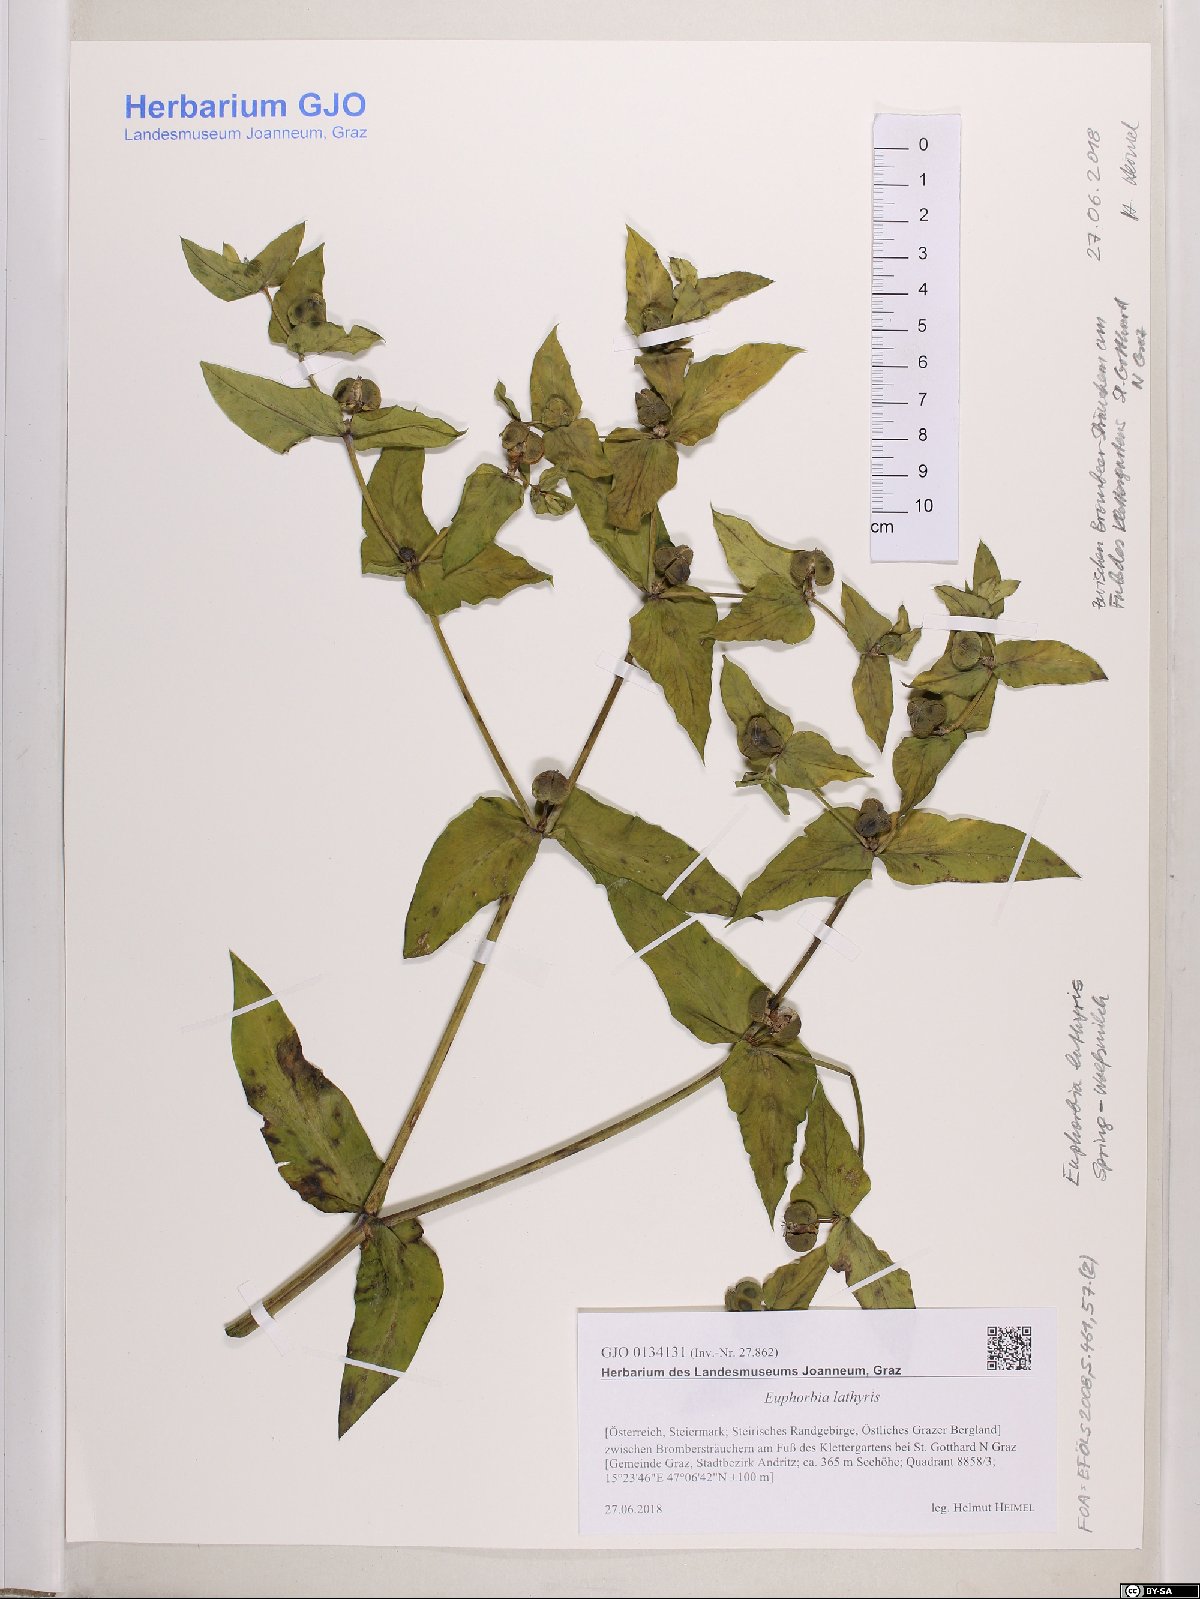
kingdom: Plantae
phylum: Tracheophyta
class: Magnoliopsida
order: Malpighiales
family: Euphorbiaceae
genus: Euphorbia
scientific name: Euphorbia lathyris
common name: Caper spurge
